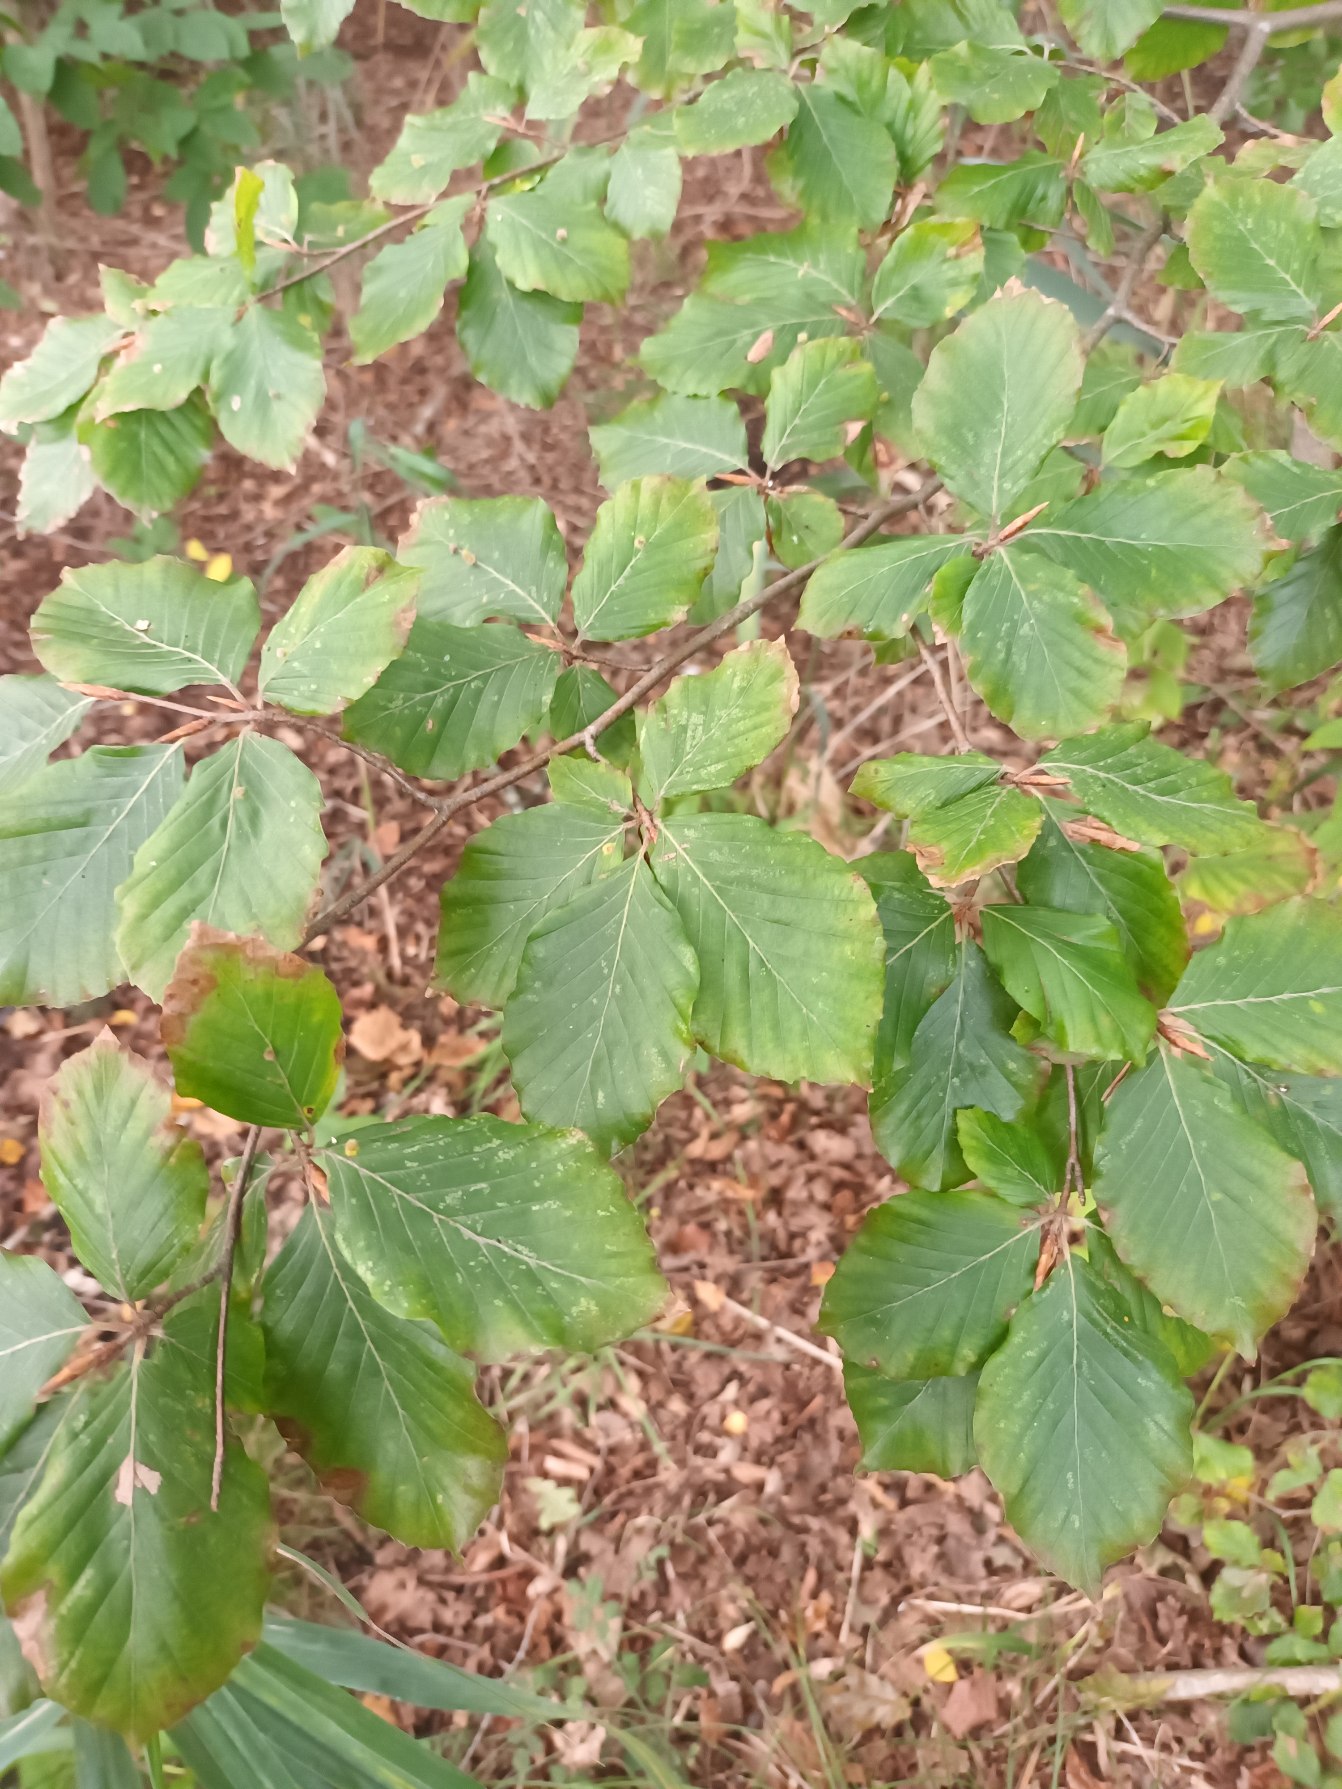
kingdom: Plantae
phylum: Tracheophyta
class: Magnoliopsida
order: Fagales
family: Fagaceae
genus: Fagus
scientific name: Fagus sylvatica
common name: Bøg
